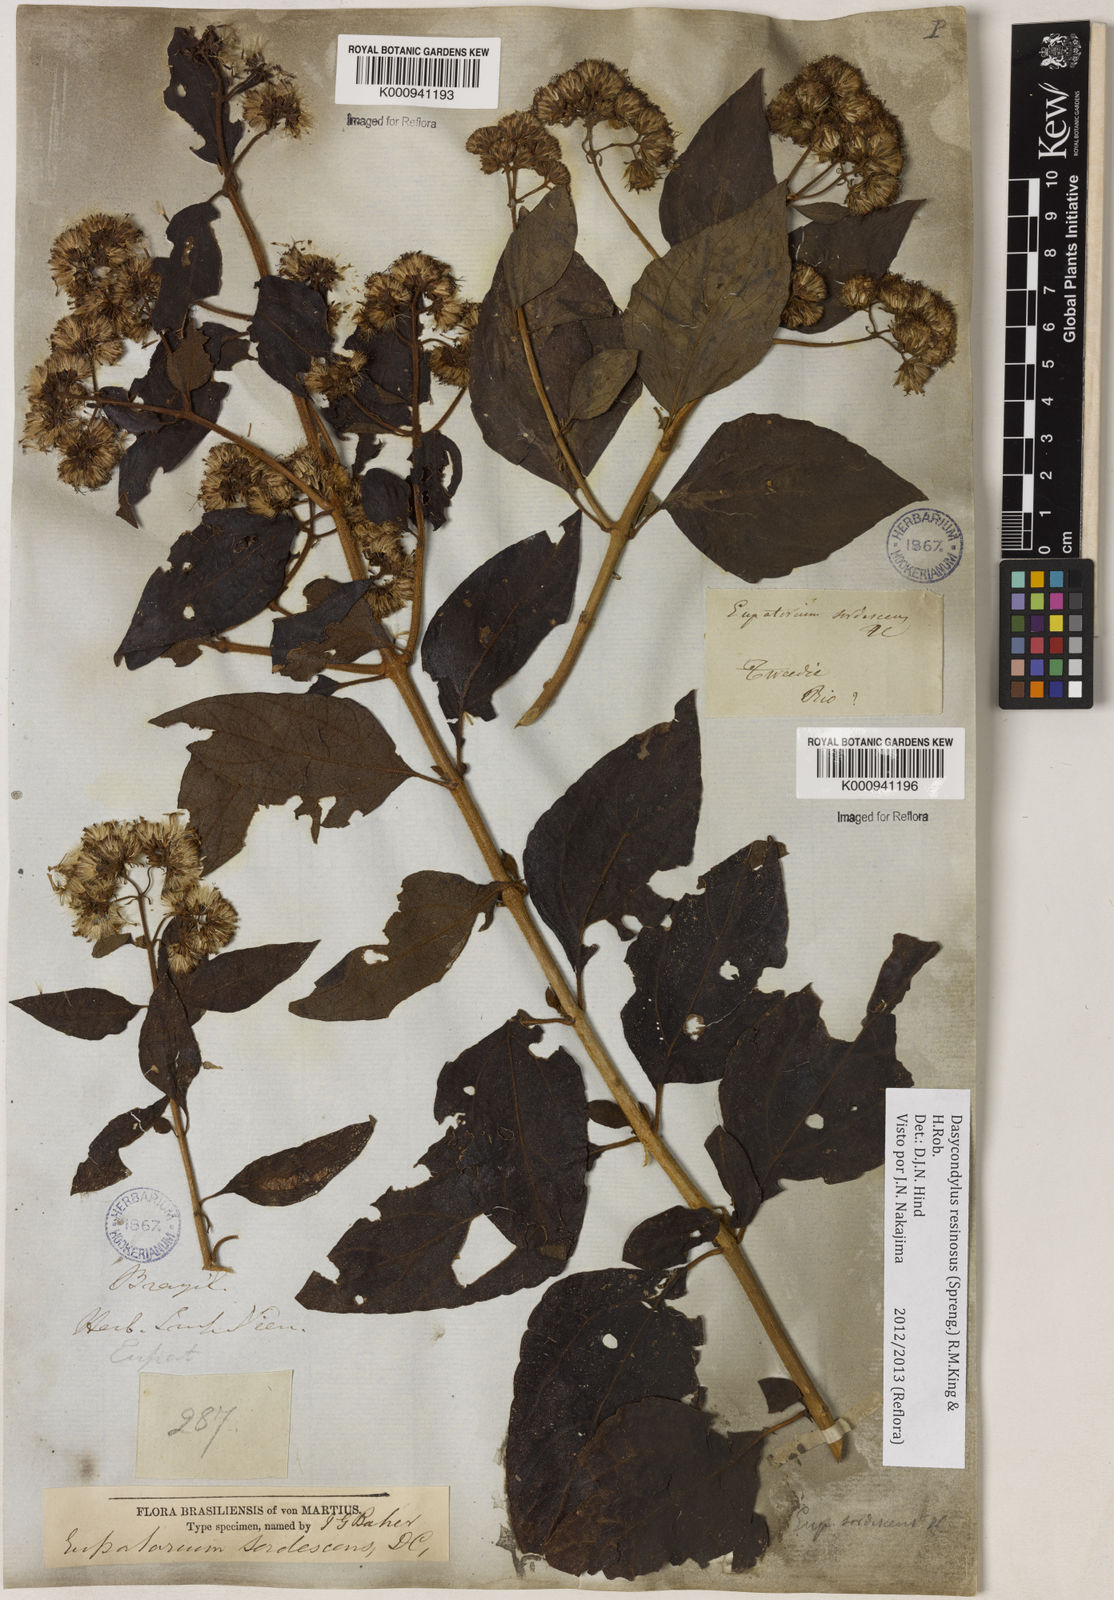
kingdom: Plantae
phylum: Tracheophyta
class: Magnoliopsida
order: Asterales
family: Asteraceae
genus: Dasycondylus
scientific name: Dasycondylus resinosus
